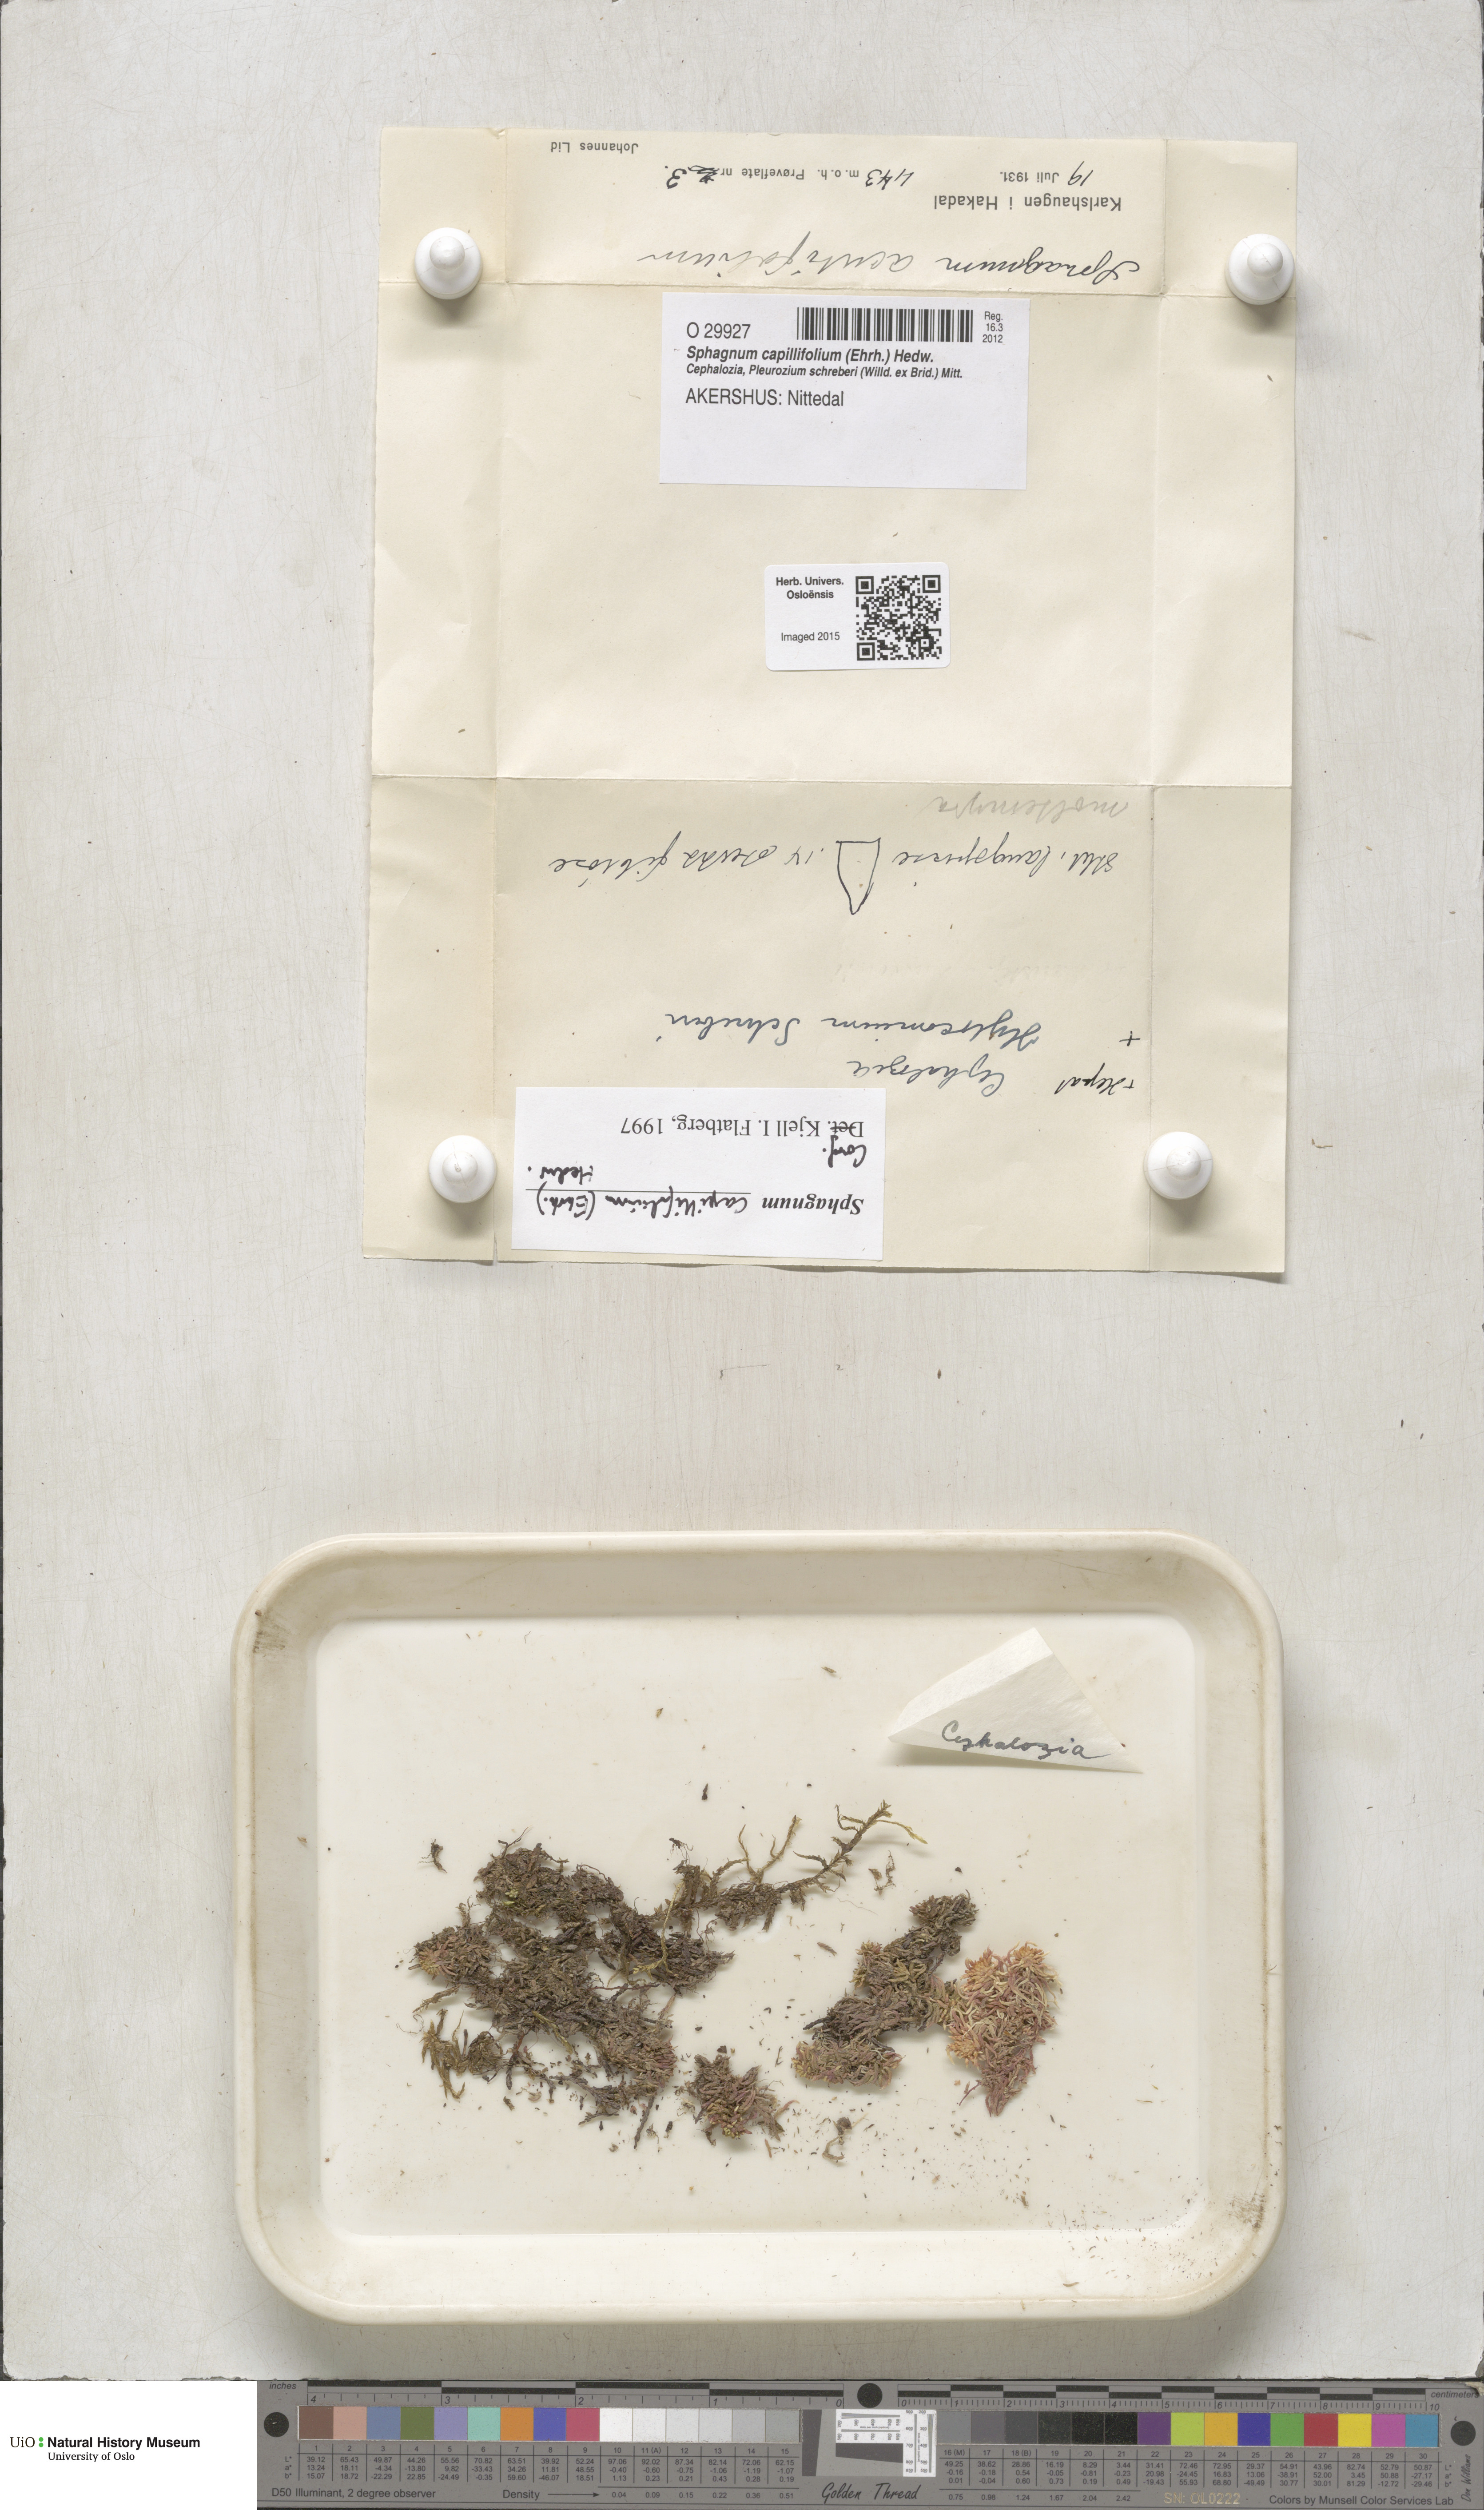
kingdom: Plantae
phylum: Bryophyta
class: Sphagnopsida
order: Sphagnales
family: Sphagnaceae
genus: Sphagnum
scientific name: Sphagnum capillifolium
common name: Small red peat moss
